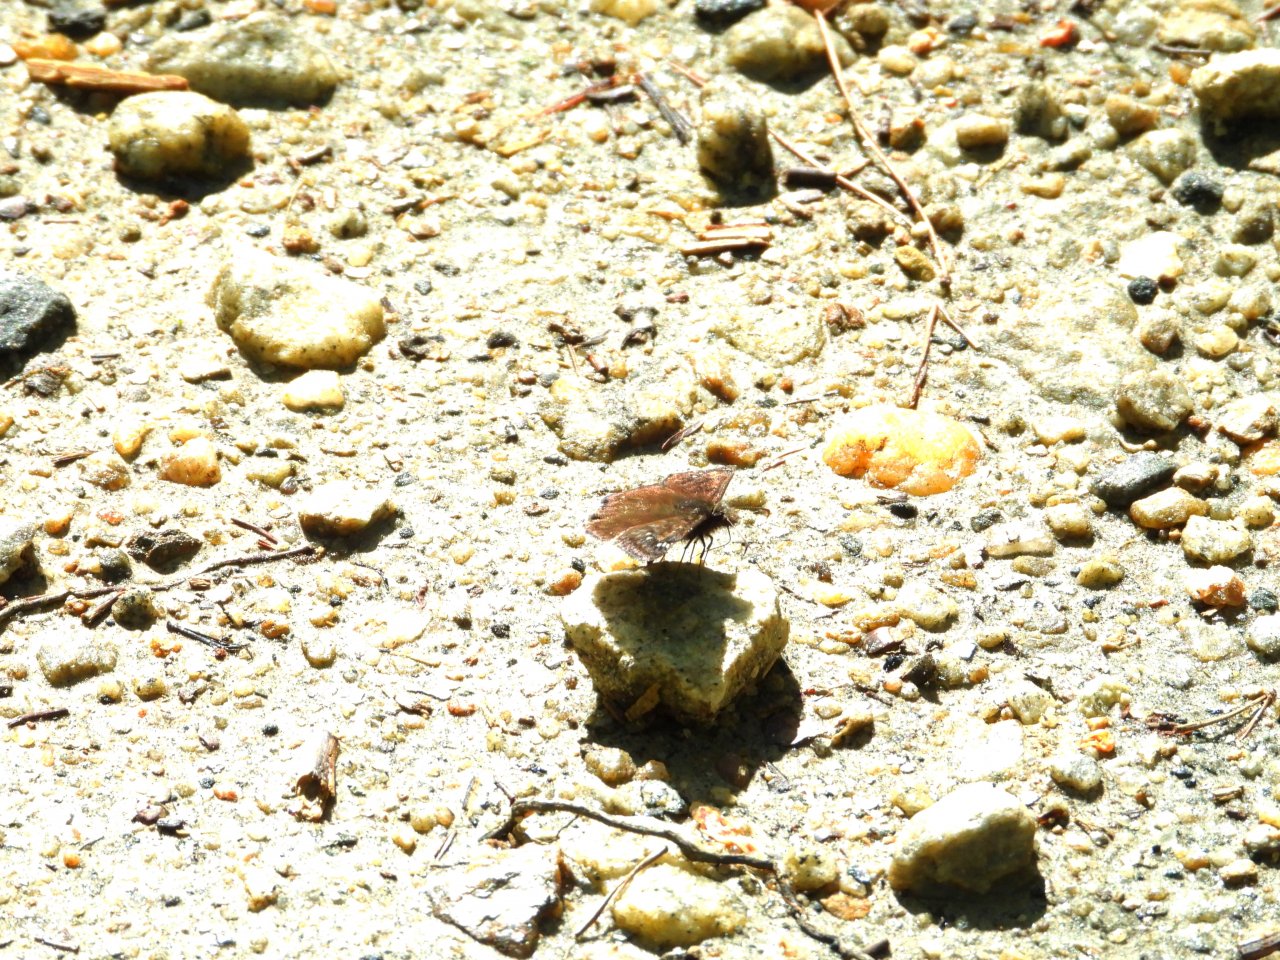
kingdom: Animalia
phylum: Arthropoda
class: Insecta
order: Lepidoptera
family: Hesperiidae
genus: Gesta
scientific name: Gesta
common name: Juvenal's Duskywing
